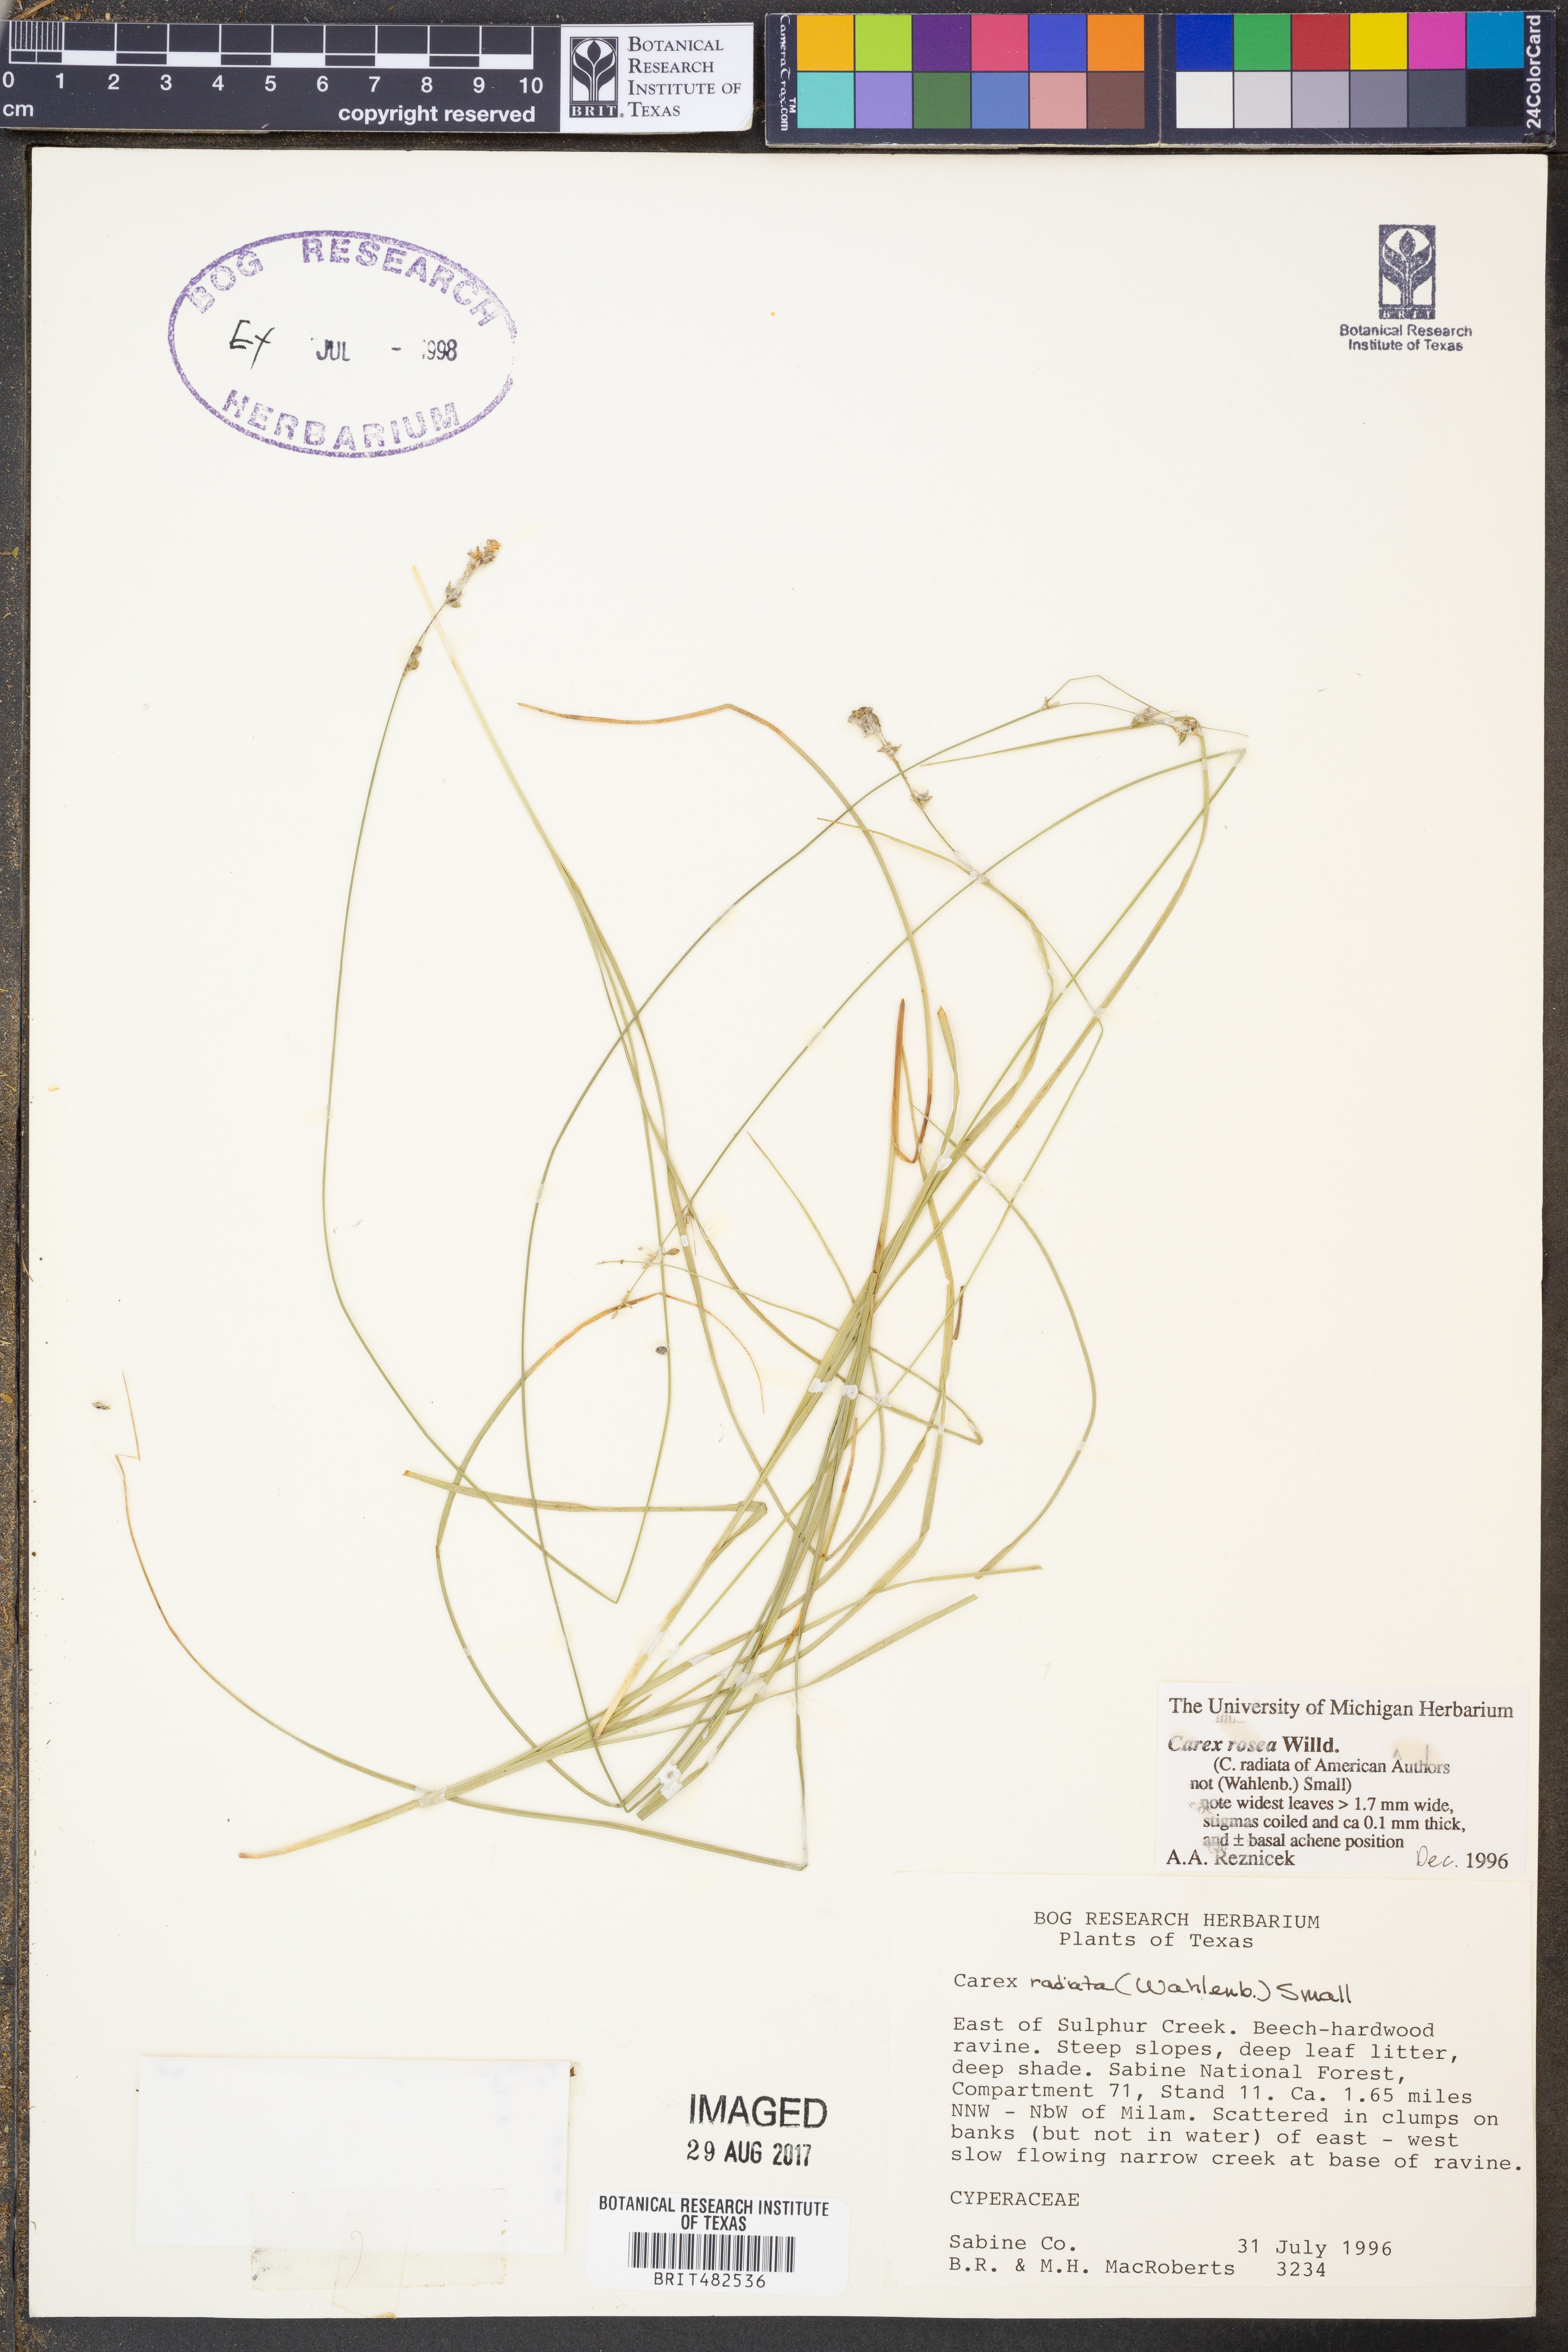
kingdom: Plantae
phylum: Tracheophyta
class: Liliopsida
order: Poales
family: Cyperaceae
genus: Carex
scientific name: Carex rosea
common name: Curly-styled wood sedge
